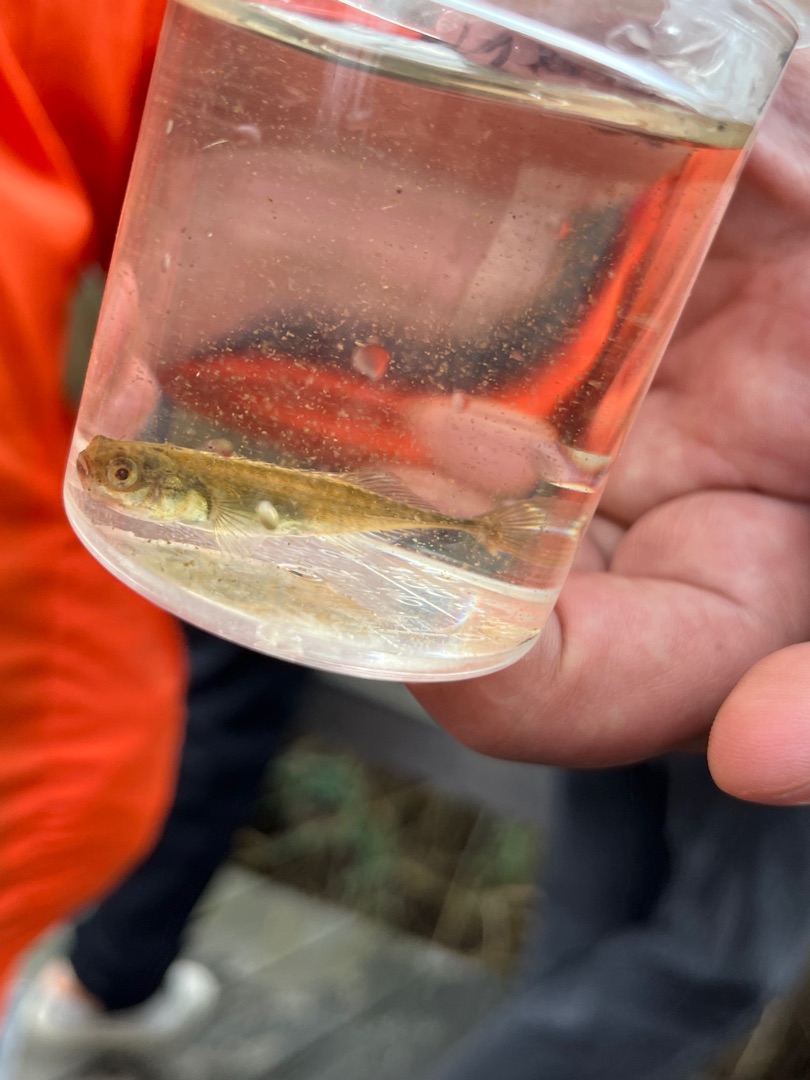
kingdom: Animalia
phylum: Chordata
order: Gasterosteiformes
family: Gasterosteidae
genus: Pungitius
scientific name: Pungitius pungitius
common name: Nipigget hundestejle
